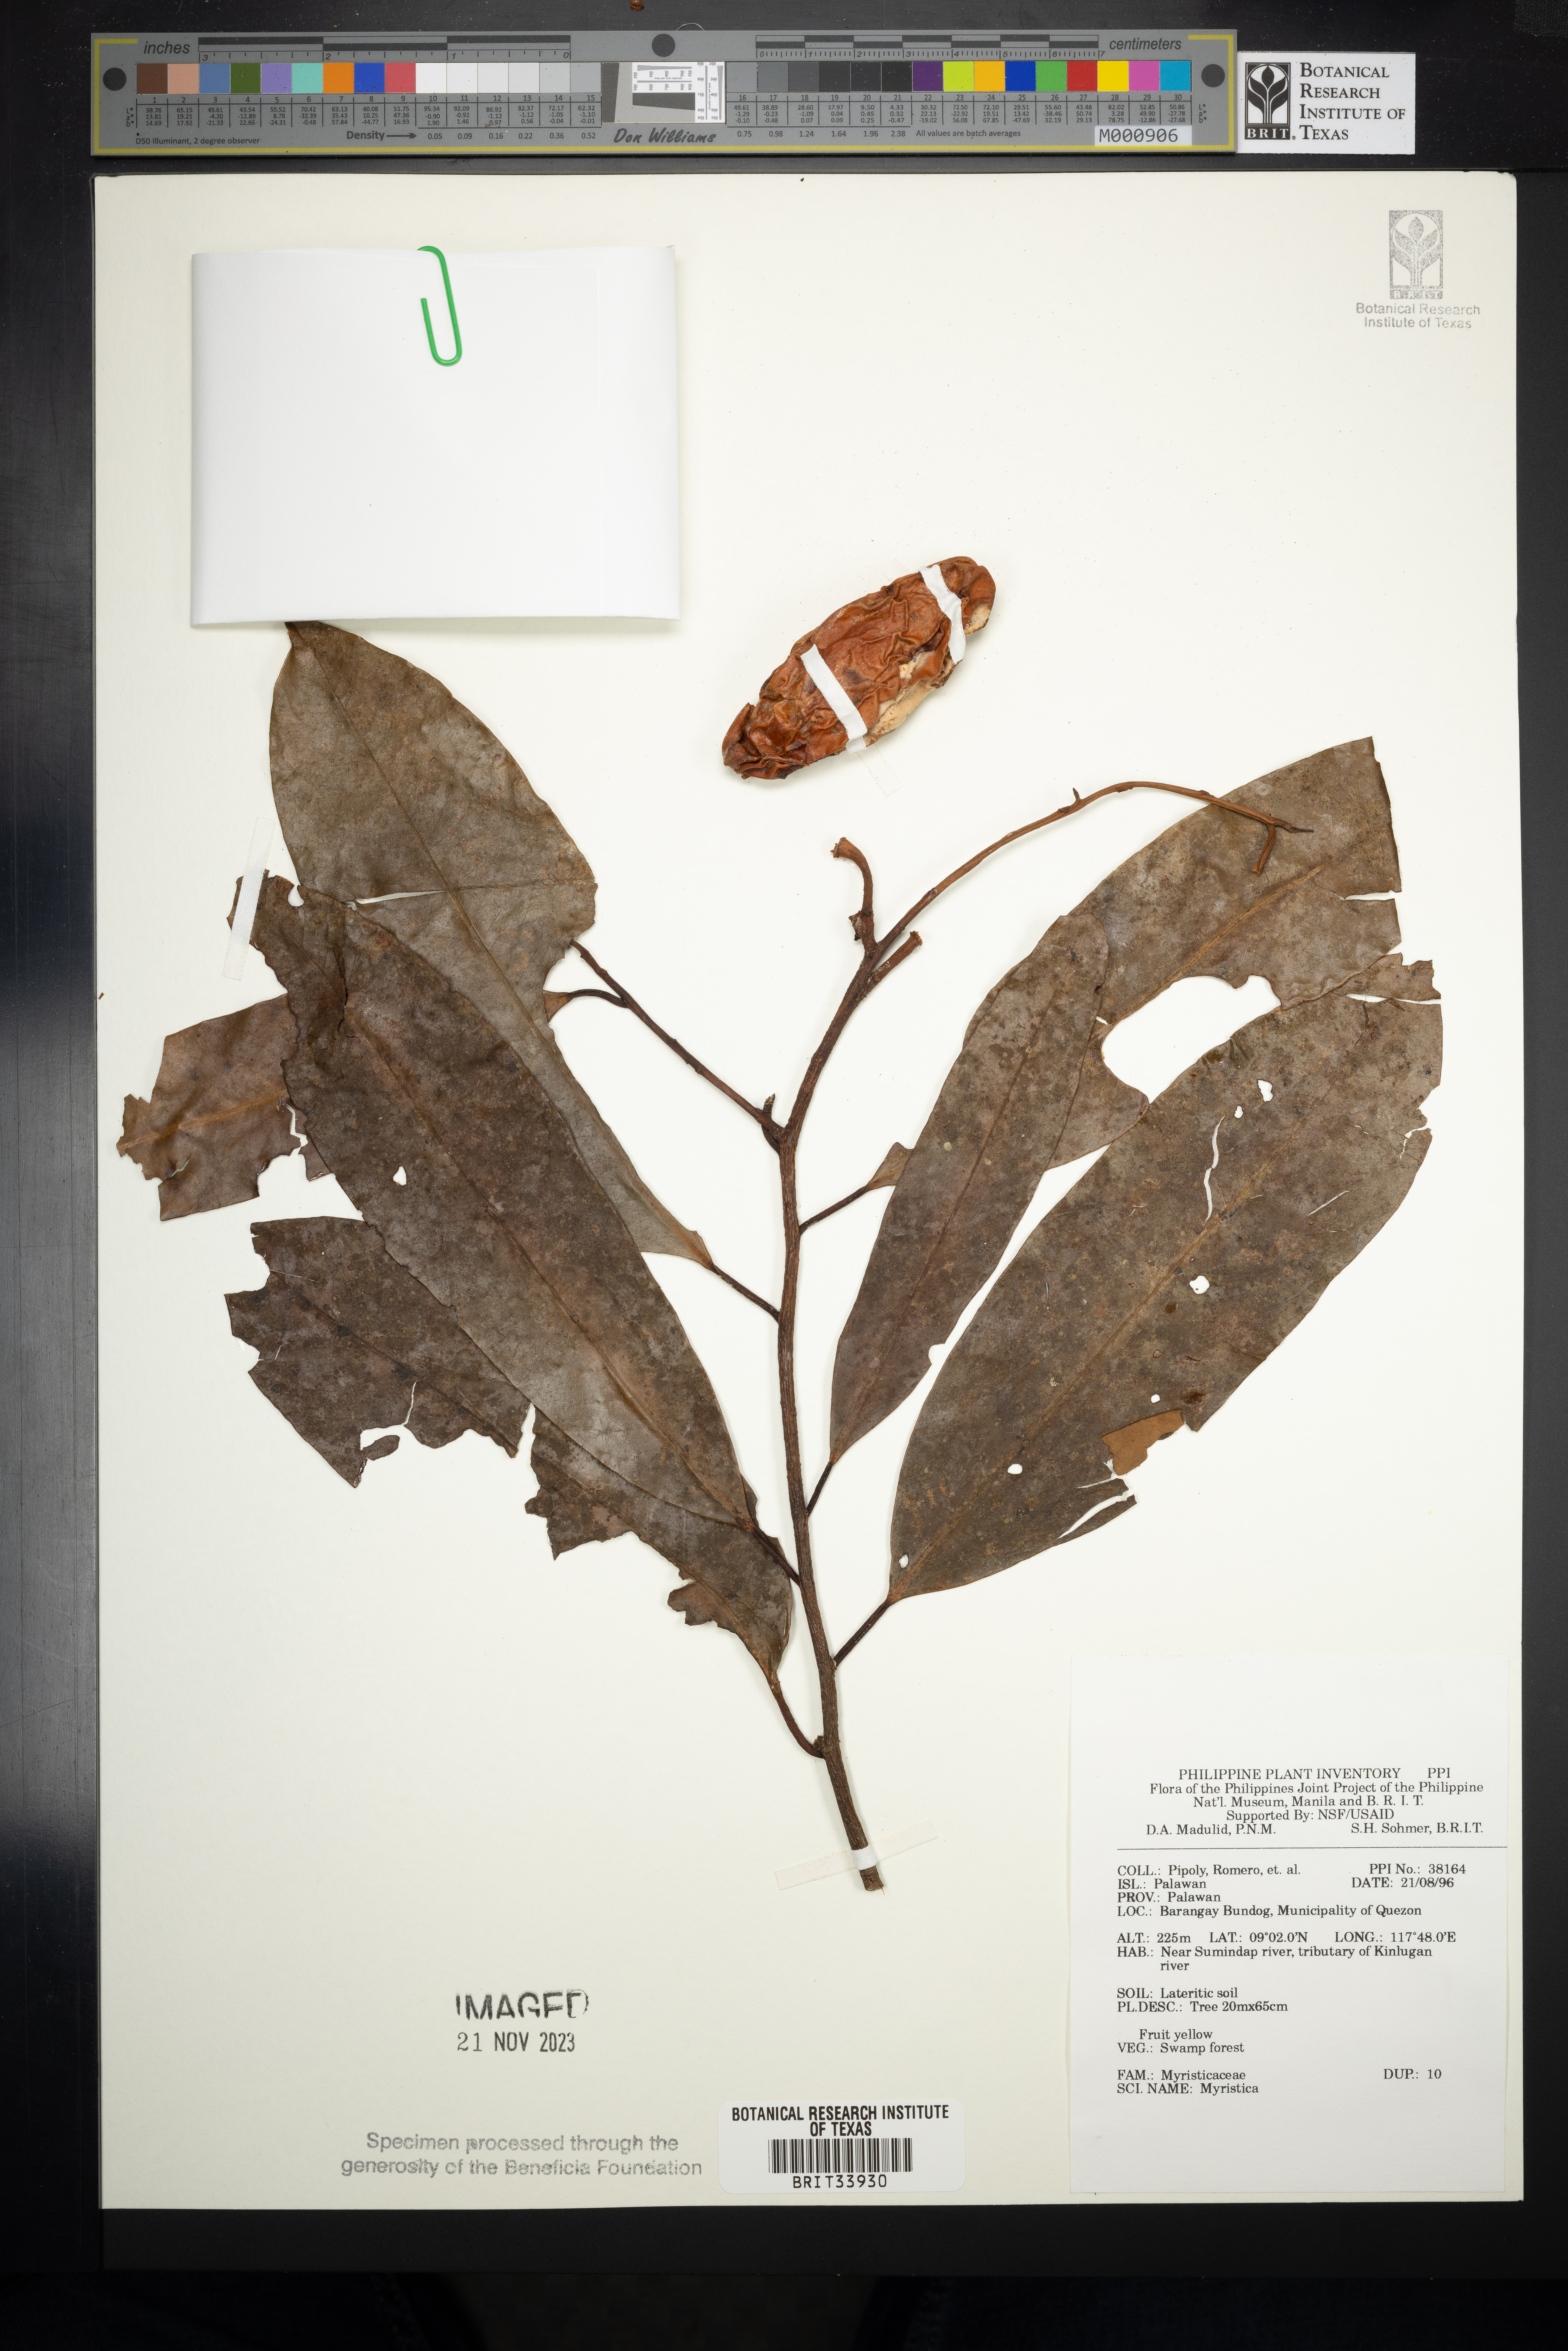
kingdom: Plantae
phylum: Tracheophyta
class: Magnoliopsida
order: Magnoliales
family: Myristicaceae
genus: Myristica
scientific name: Myristica
